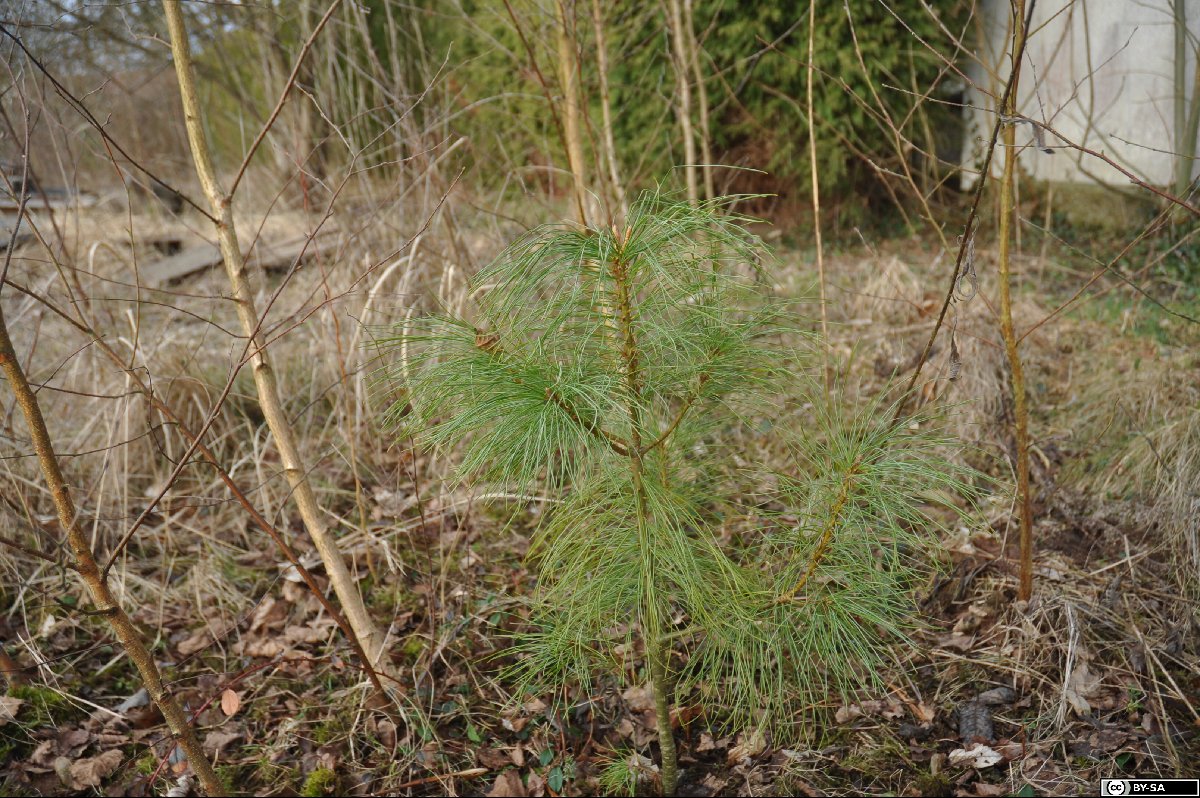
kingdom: Plantae
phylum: Tracheophyta
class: Pinopsida
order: Pinales
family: Pinaceae
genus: Pinus
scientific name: Pinus wallichiana
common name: Bhutan pine
